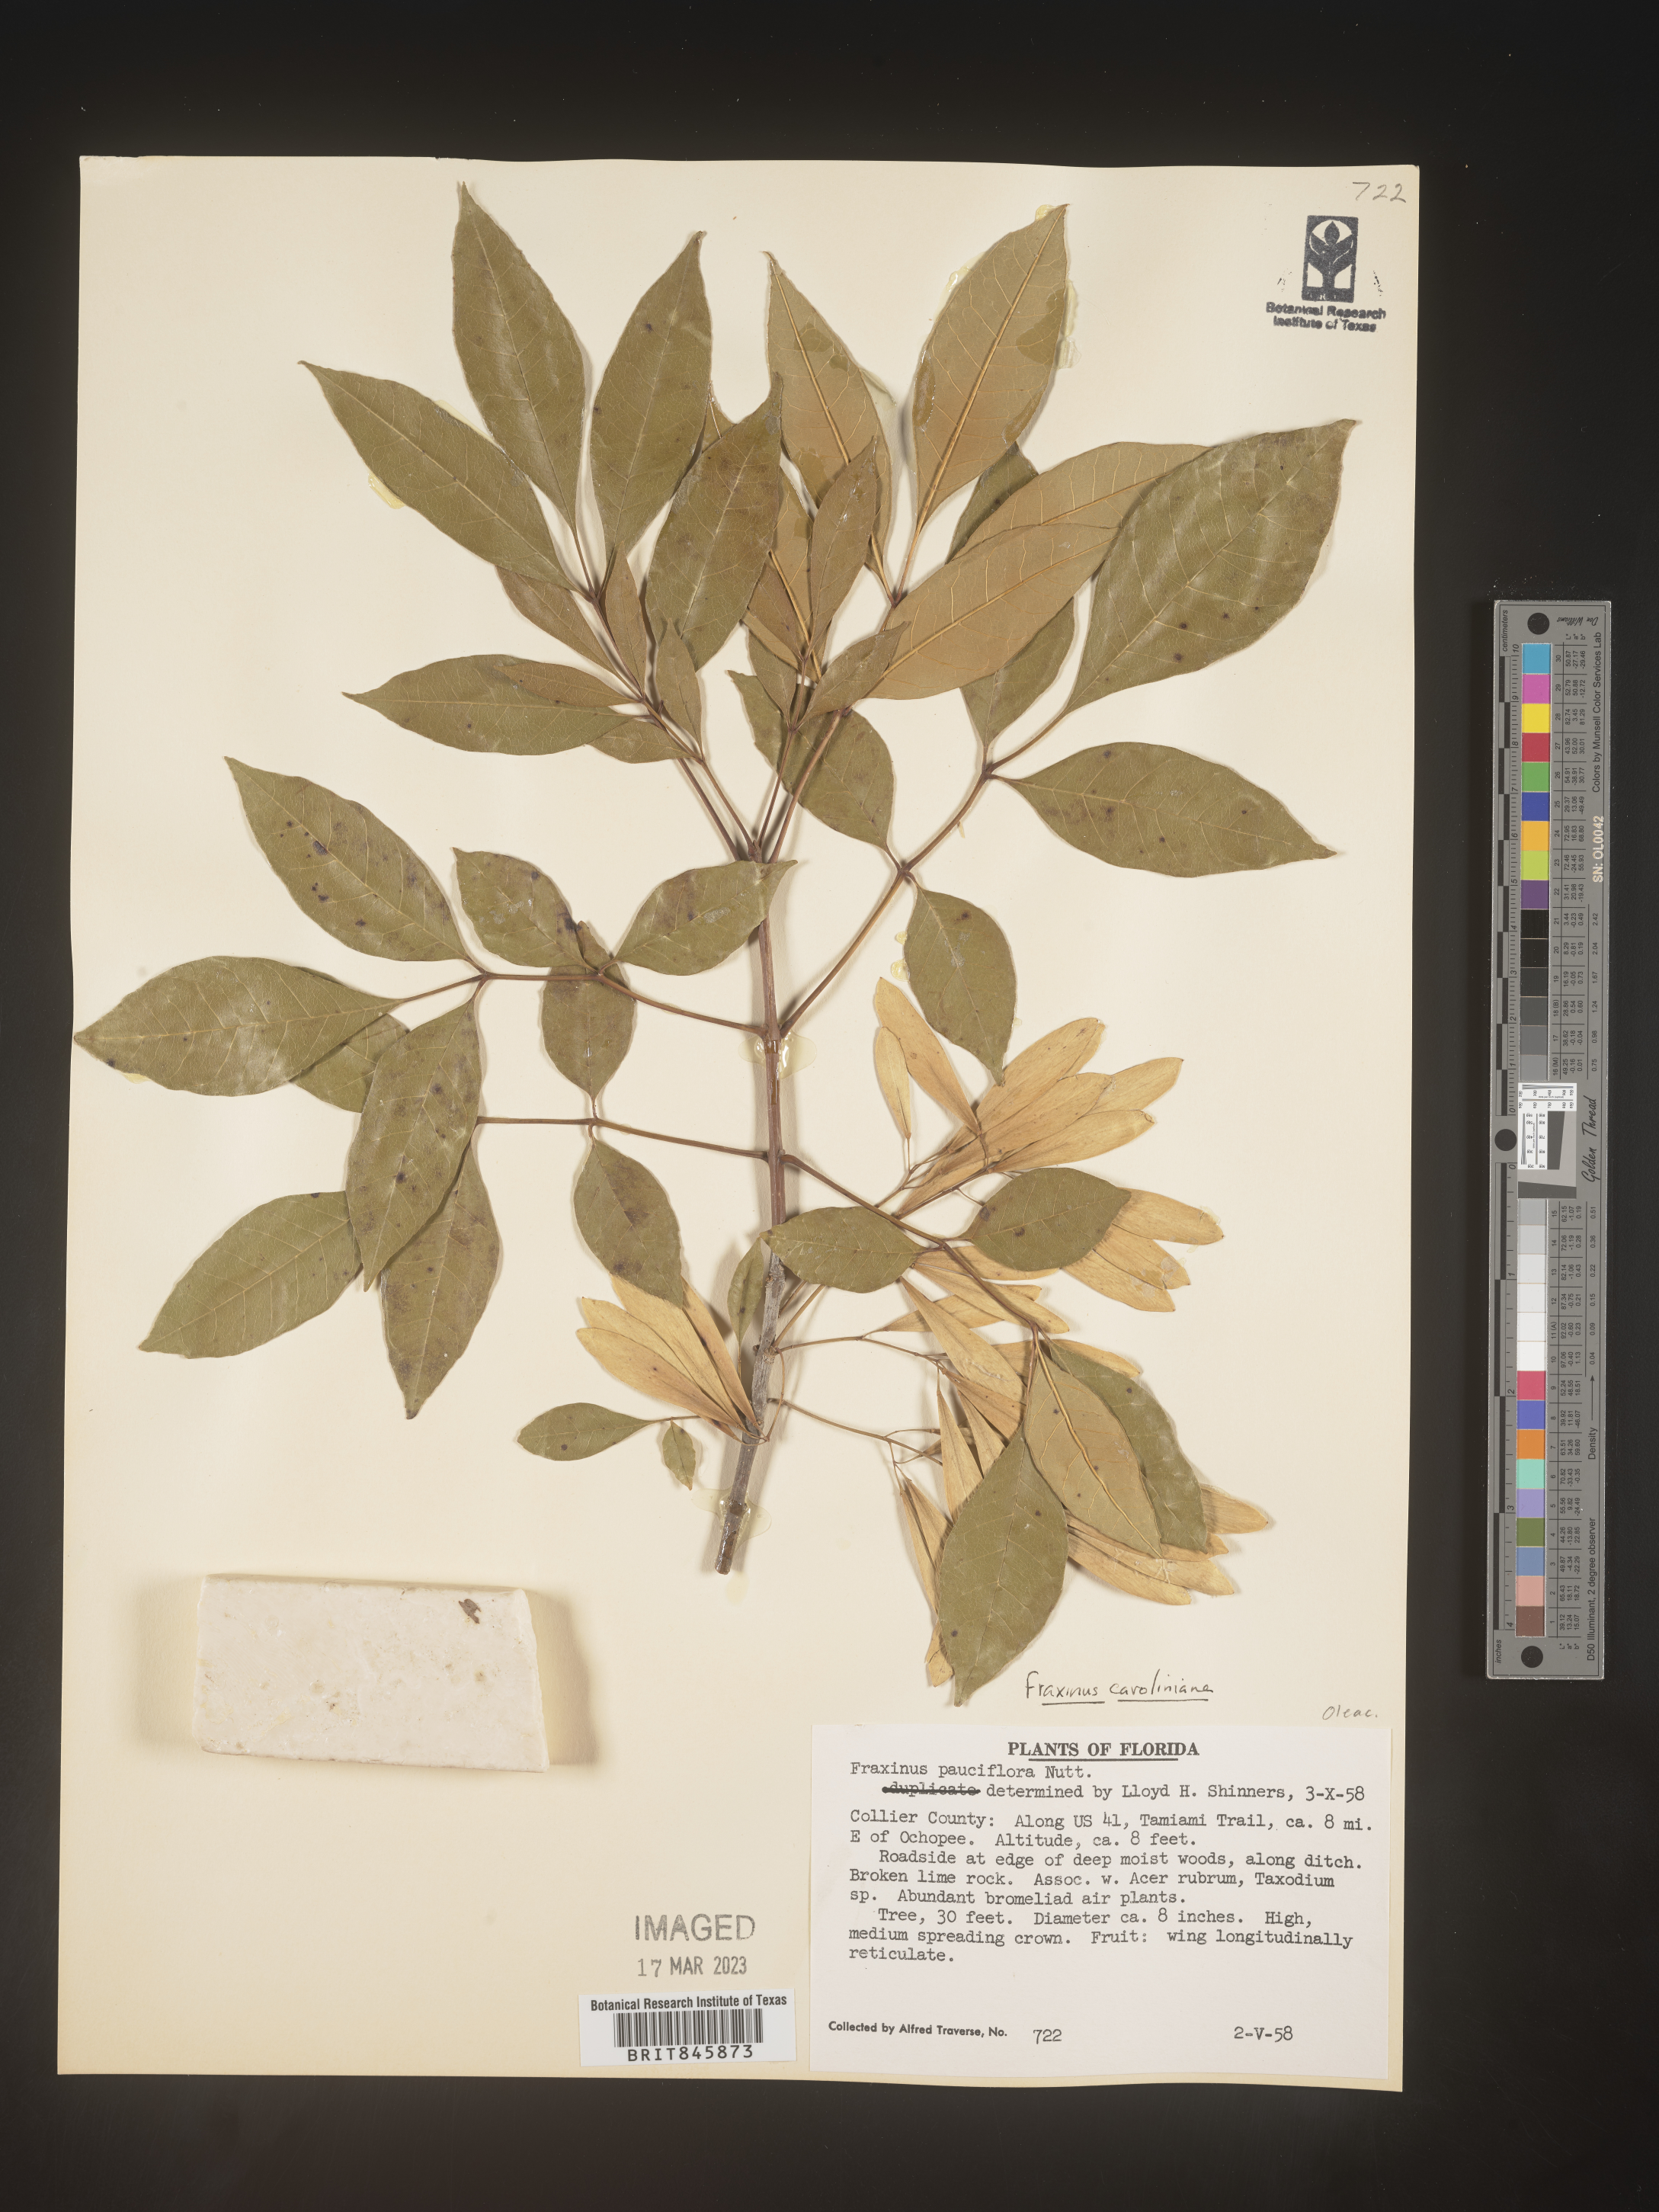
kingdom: Plantae
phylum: Tracheophyta
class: Magnoliopsida
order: Lamiales
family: Oleaceae
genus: Fraxinus
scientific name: Fraxinus caroliniana
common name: Carolina ash
